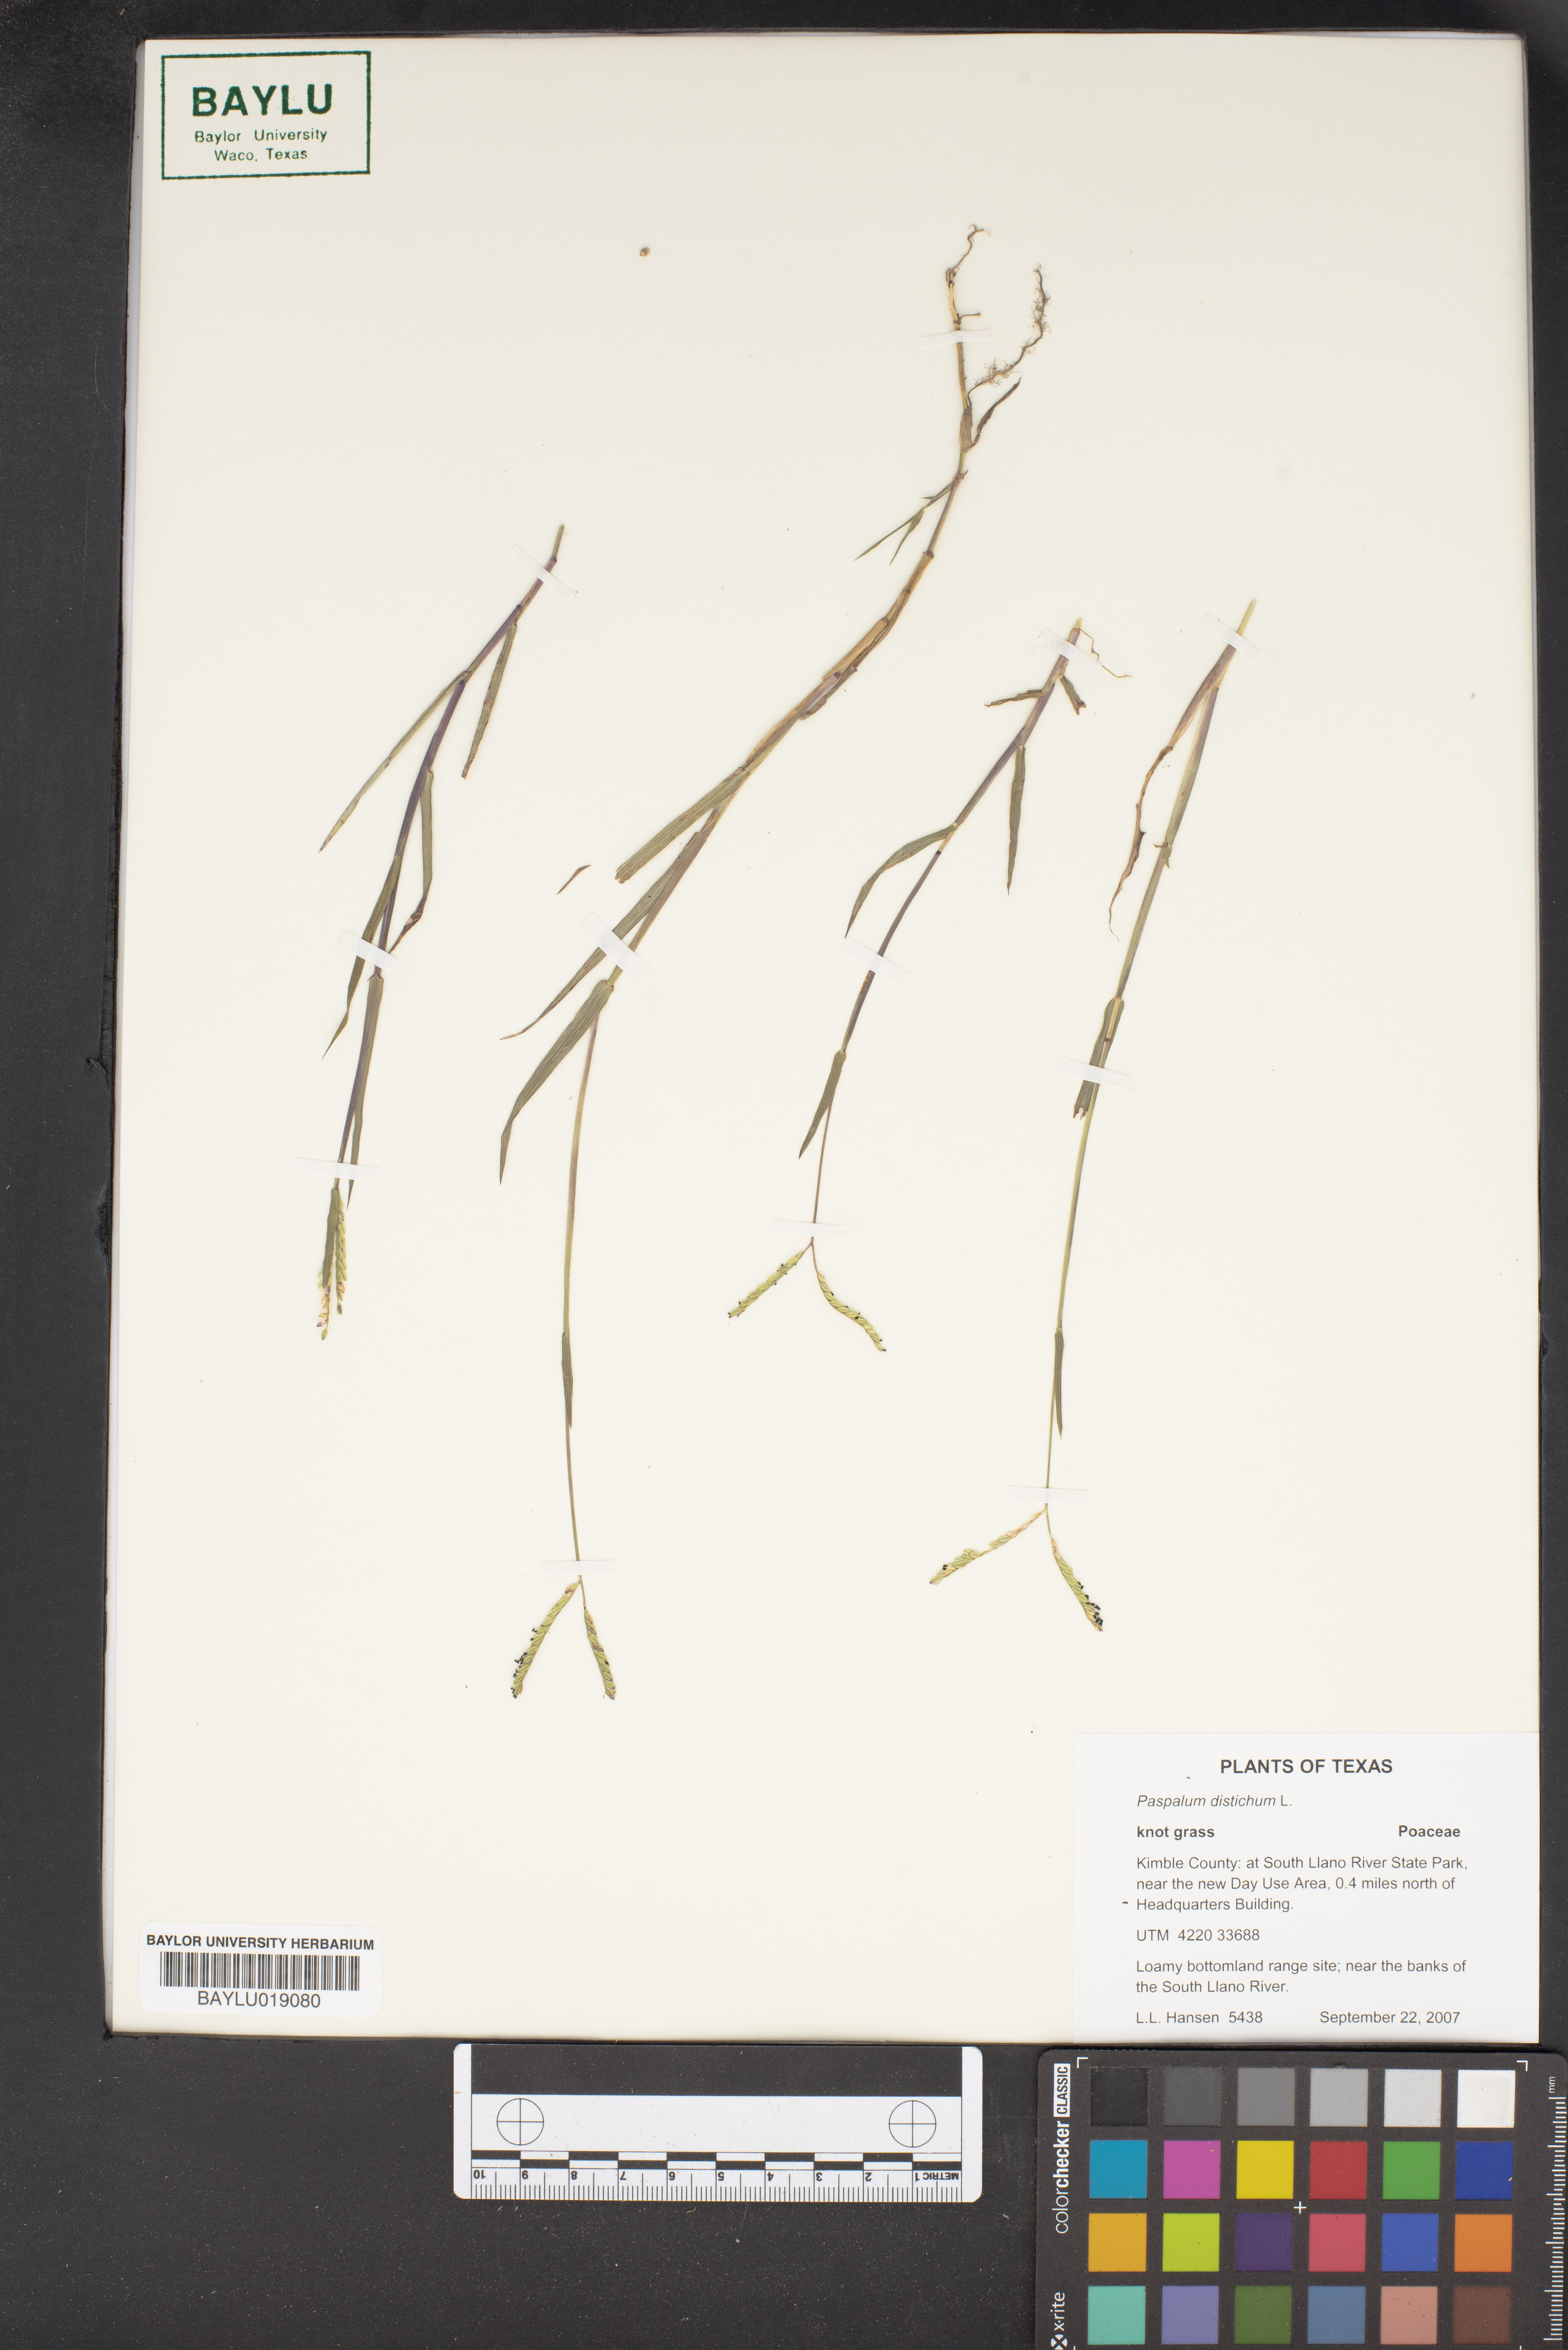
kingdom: Plantae
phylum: Tracheophyta
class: Liliopsida
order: Poales
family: Poaceae
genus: Paspalum
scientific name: Paspalum distichum
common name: Knotgrass
